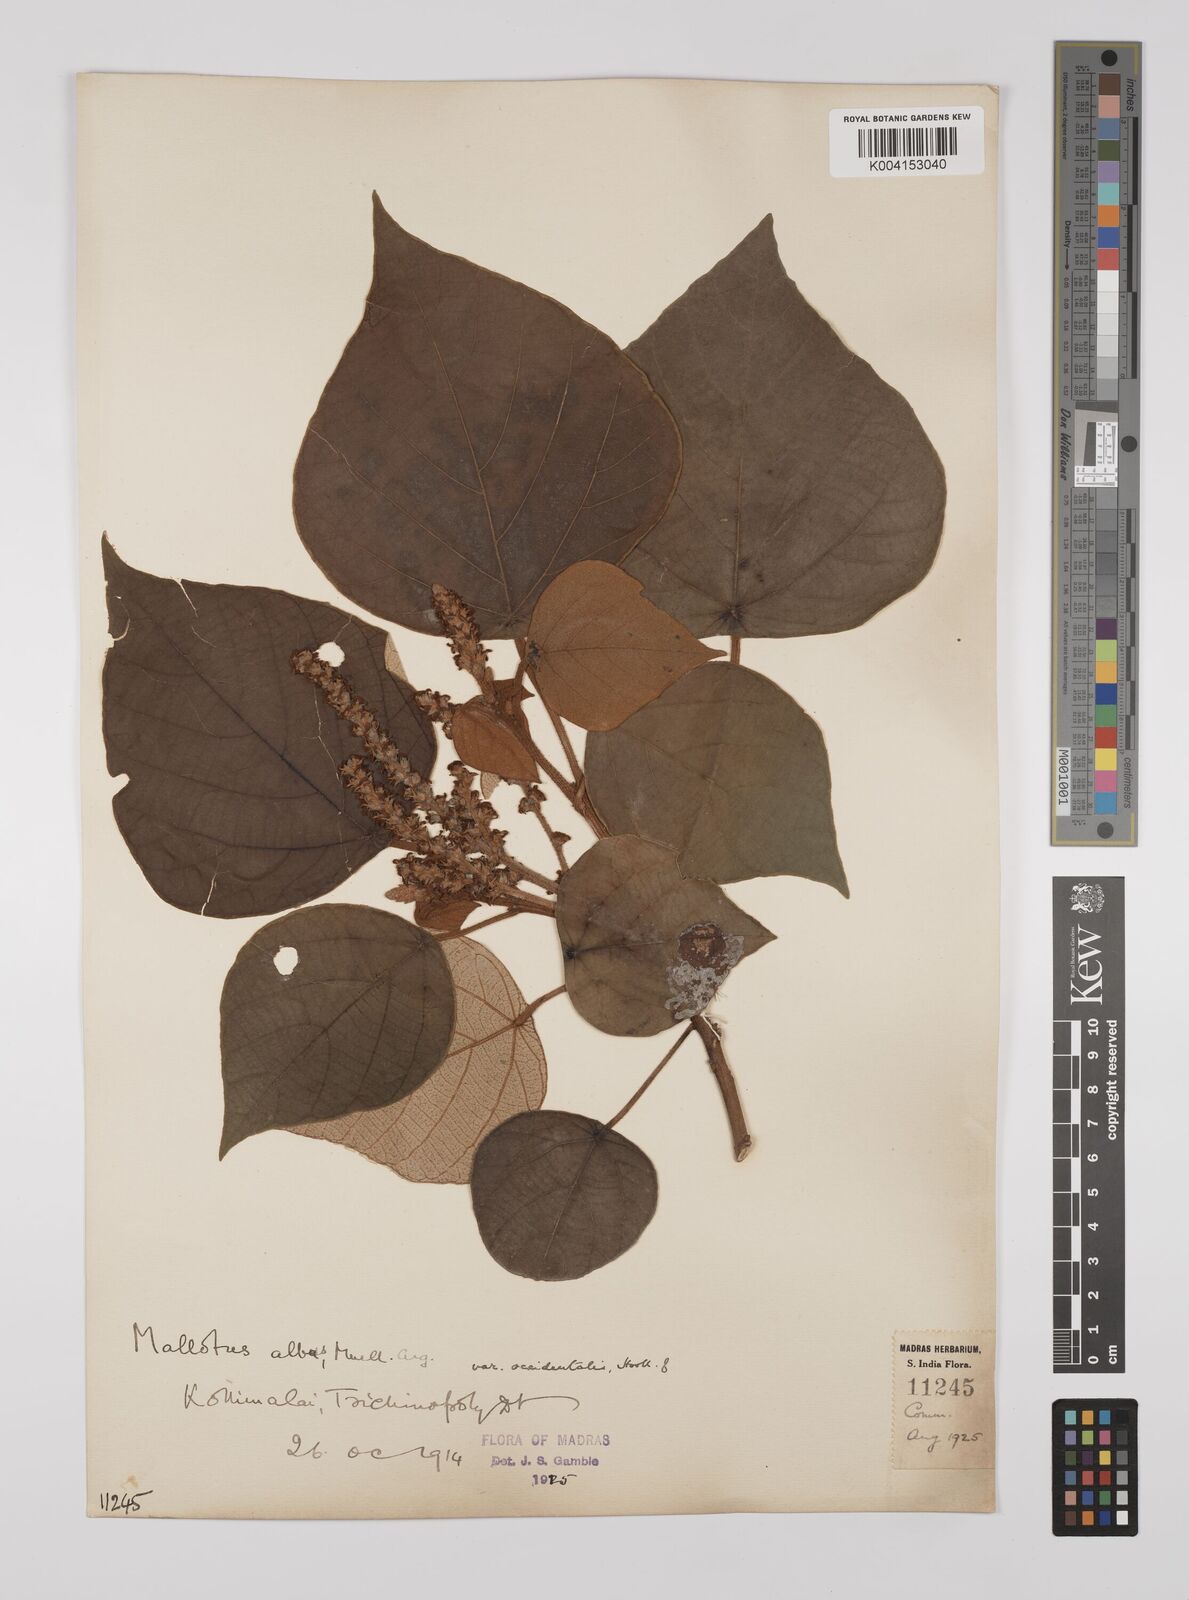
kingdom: Plantae
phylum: Tracheophyta
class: Magnoliopsida
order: Malpighiales
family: Euphorbiaceae
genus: Mallotus
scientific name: Mallotus paniculatus
